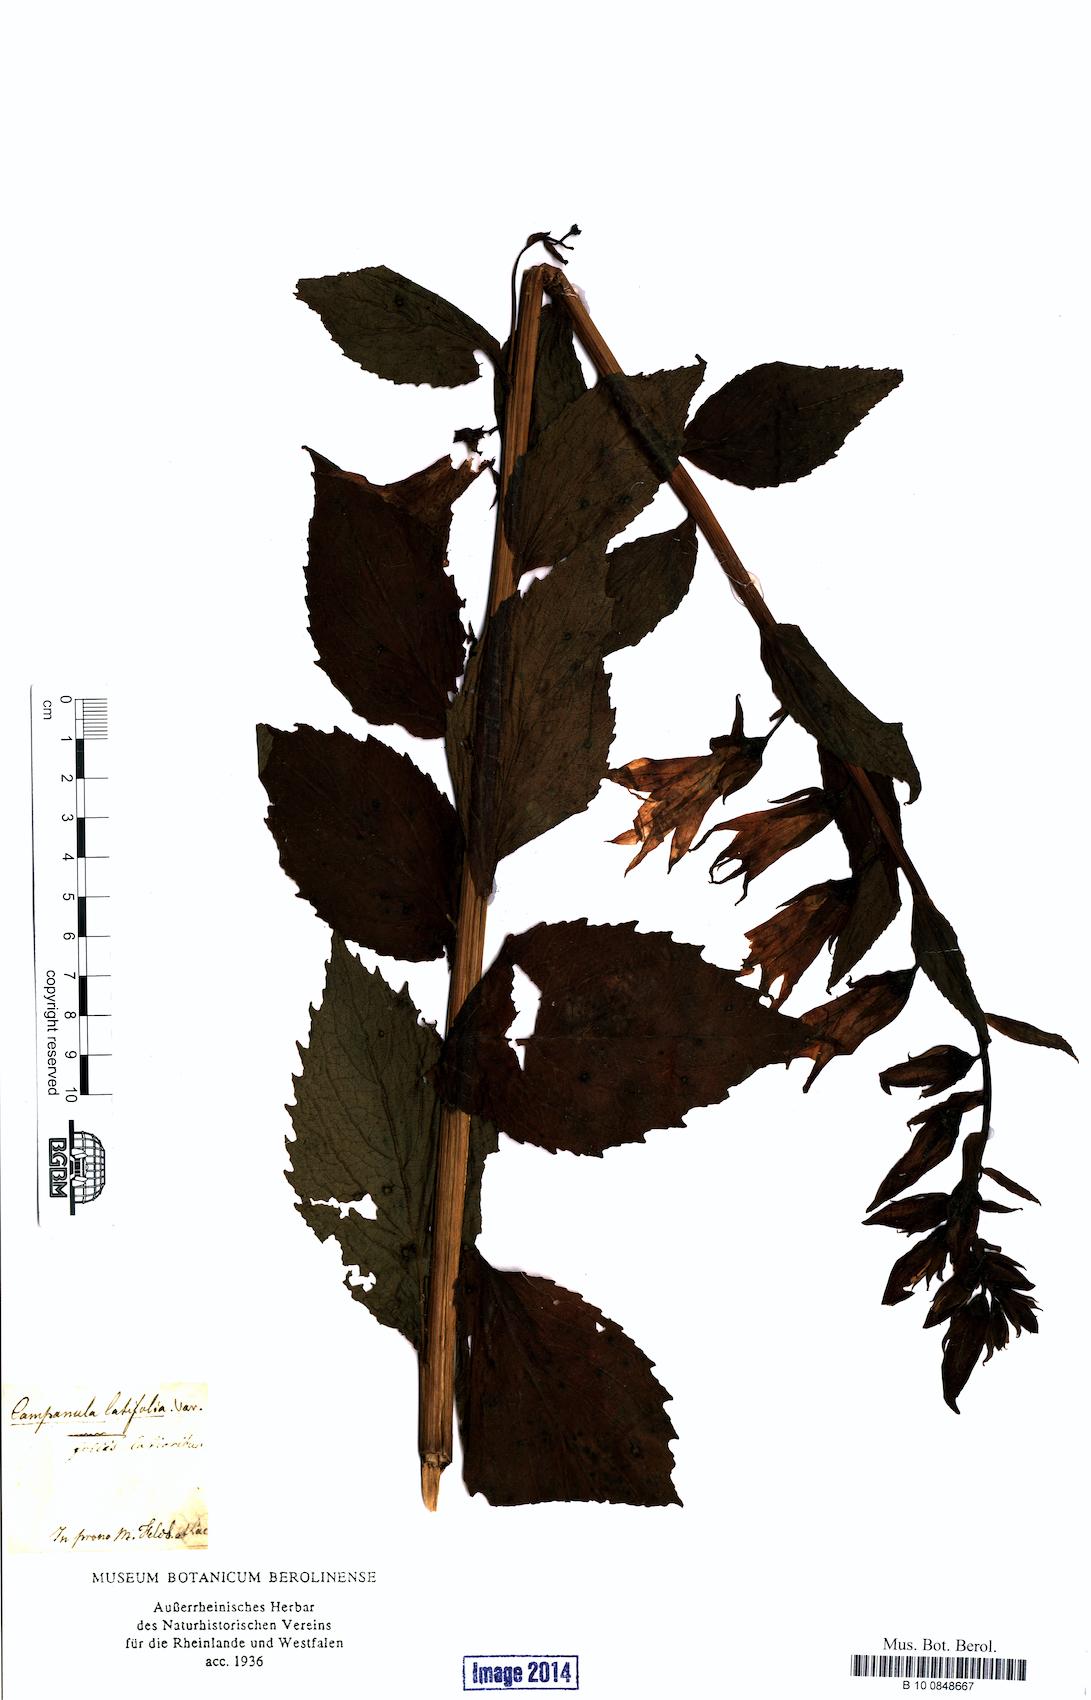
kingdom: Plantae
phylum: Tracheophyta
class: Magnoliopsida
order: Asterales
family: Campanulaceae
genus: Campanula
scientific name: Campanula latifolia
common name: Giant bellflower
